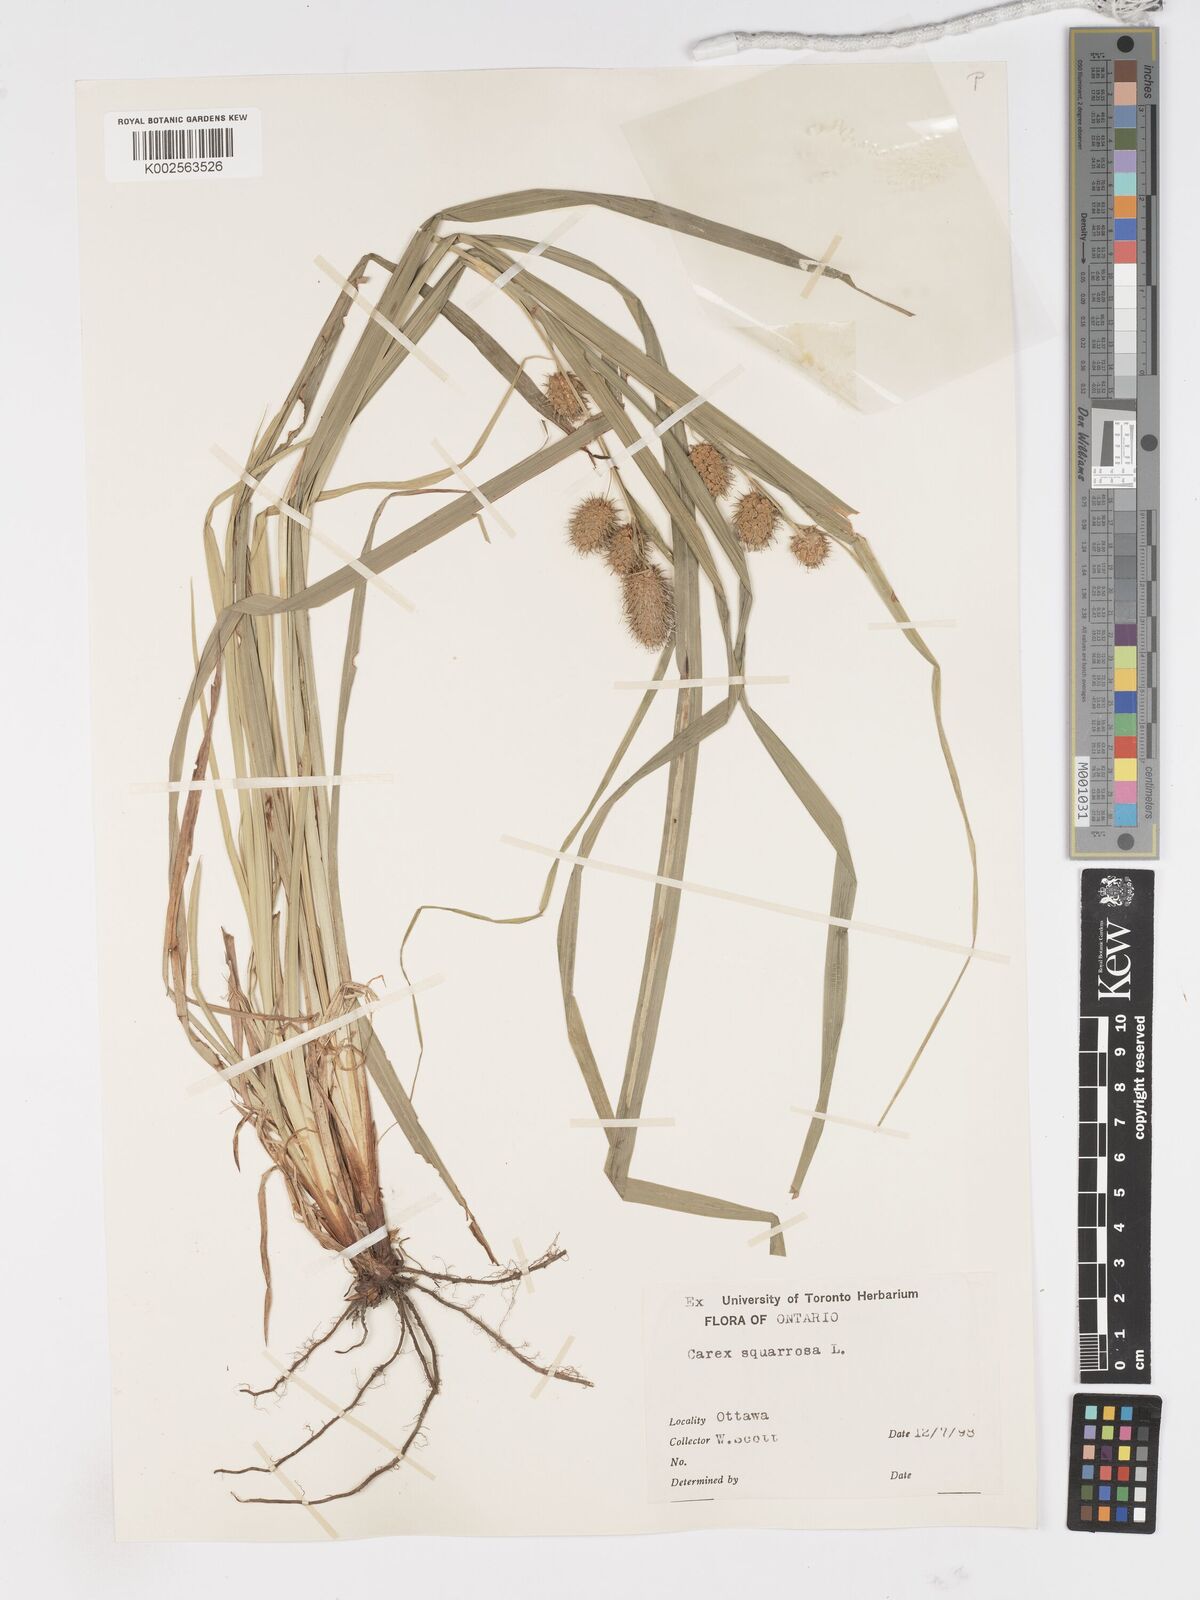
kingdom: Plantae
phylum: Tracheophyta
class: Liliopsida
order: Poales
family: Cyperaceae
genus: Carex
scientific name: Carex squarrosa
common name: Narrow-leaved cattail sedge
